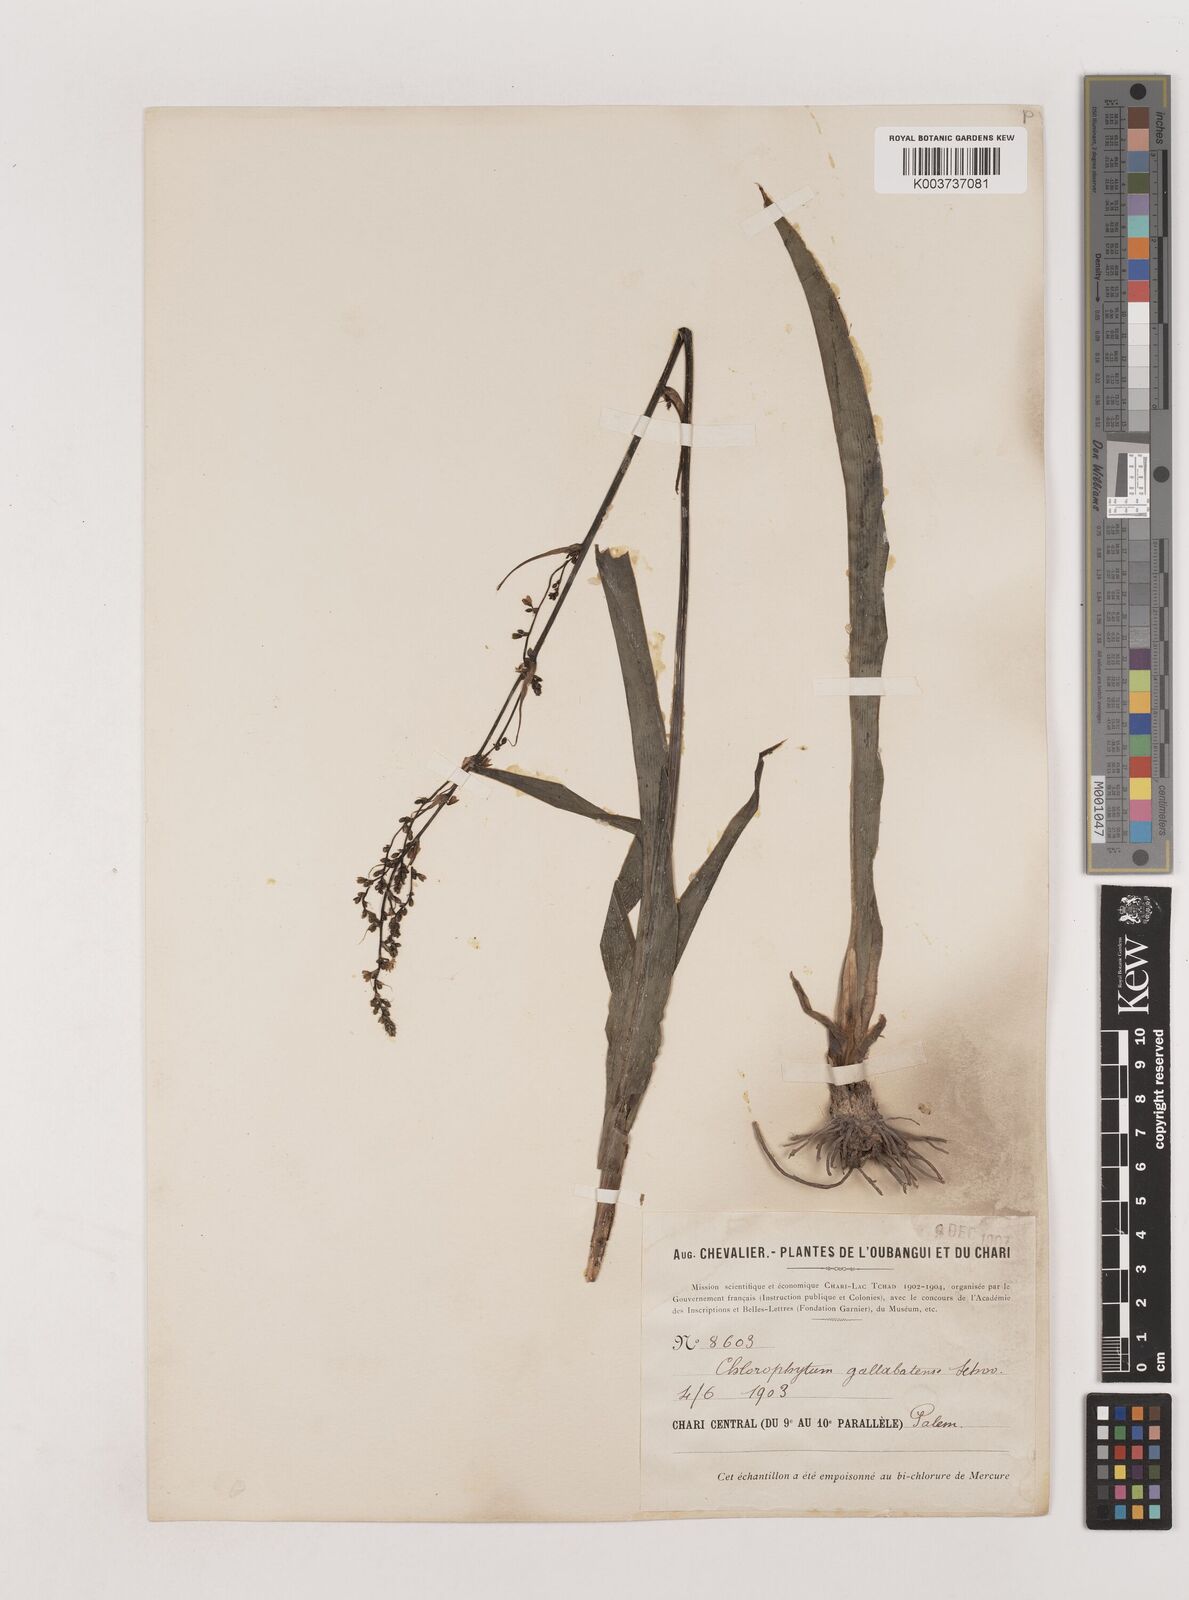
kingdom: Plantae
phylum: Tracheophyta
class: Liliopsida
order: Asparagales
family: Asparagaceae
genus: Chlorophytum
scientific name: Chlorophytum gallabatense
